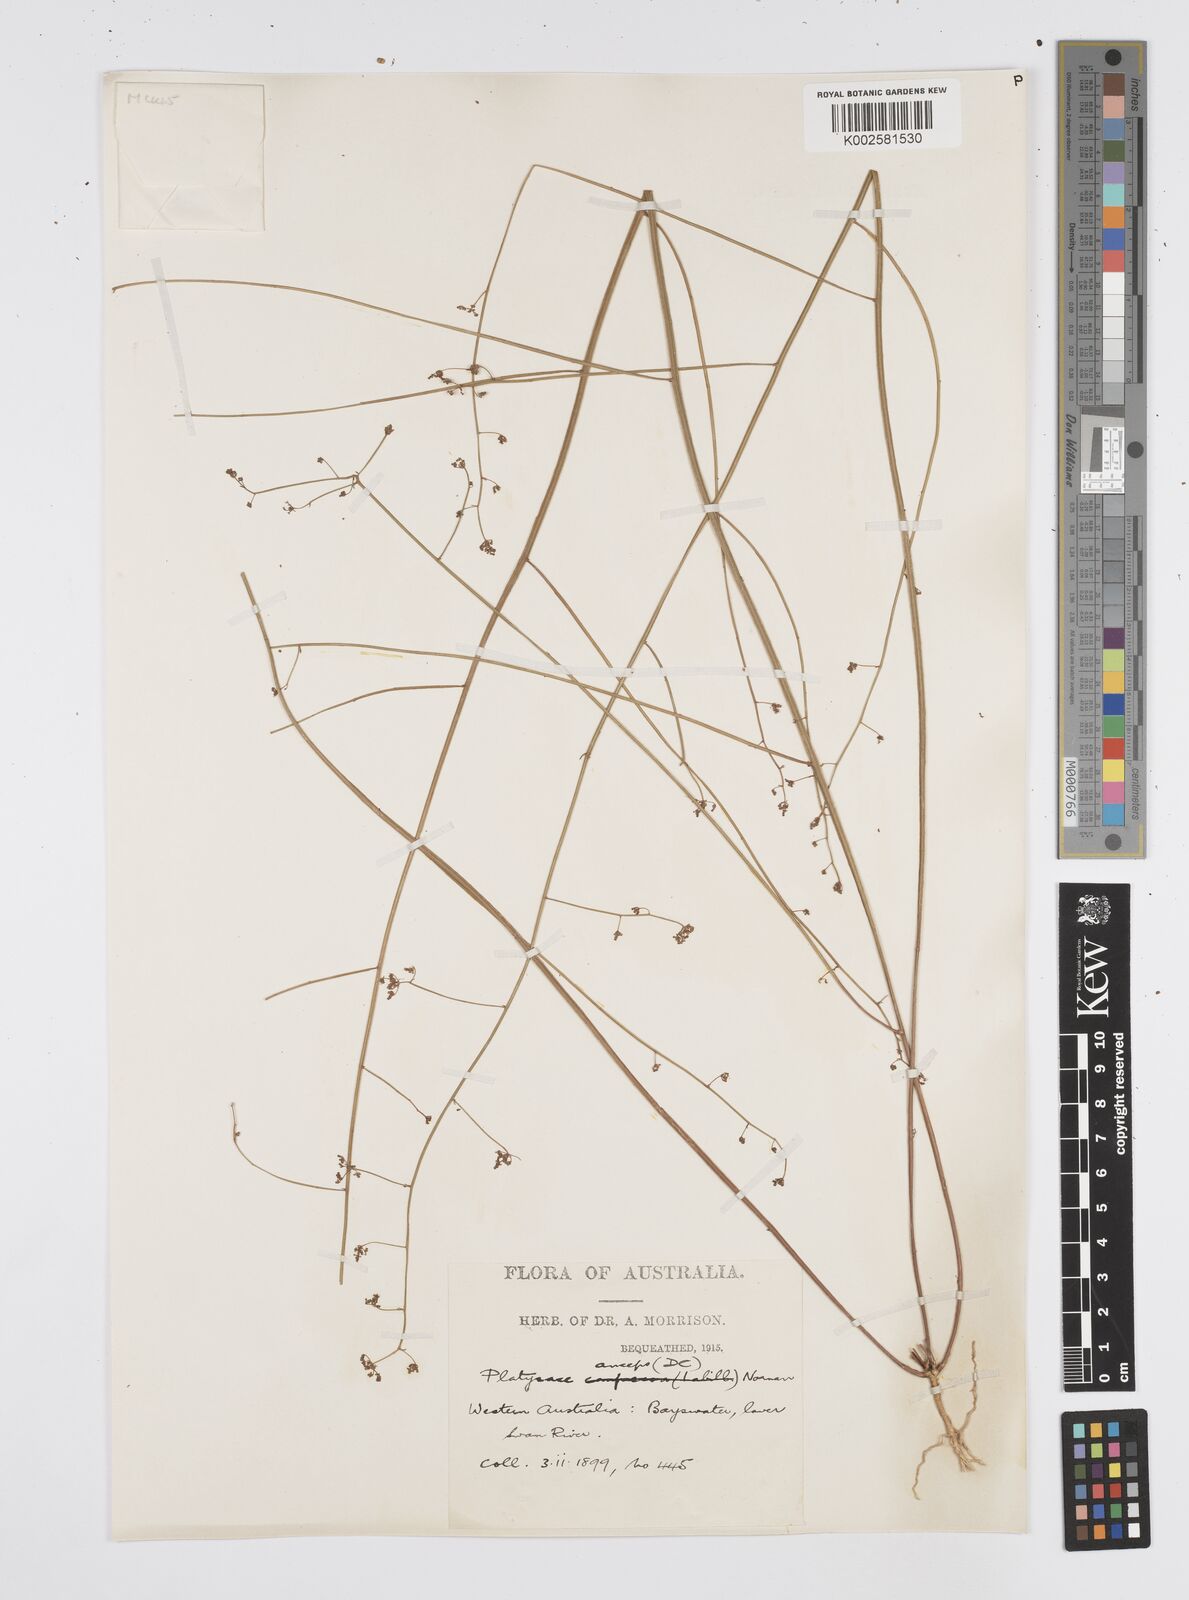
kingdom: Plantae
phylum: Tracheophyta
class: Magnoliopsida
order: Apiales
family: Apiaceae
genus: Centella
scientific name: Centella
